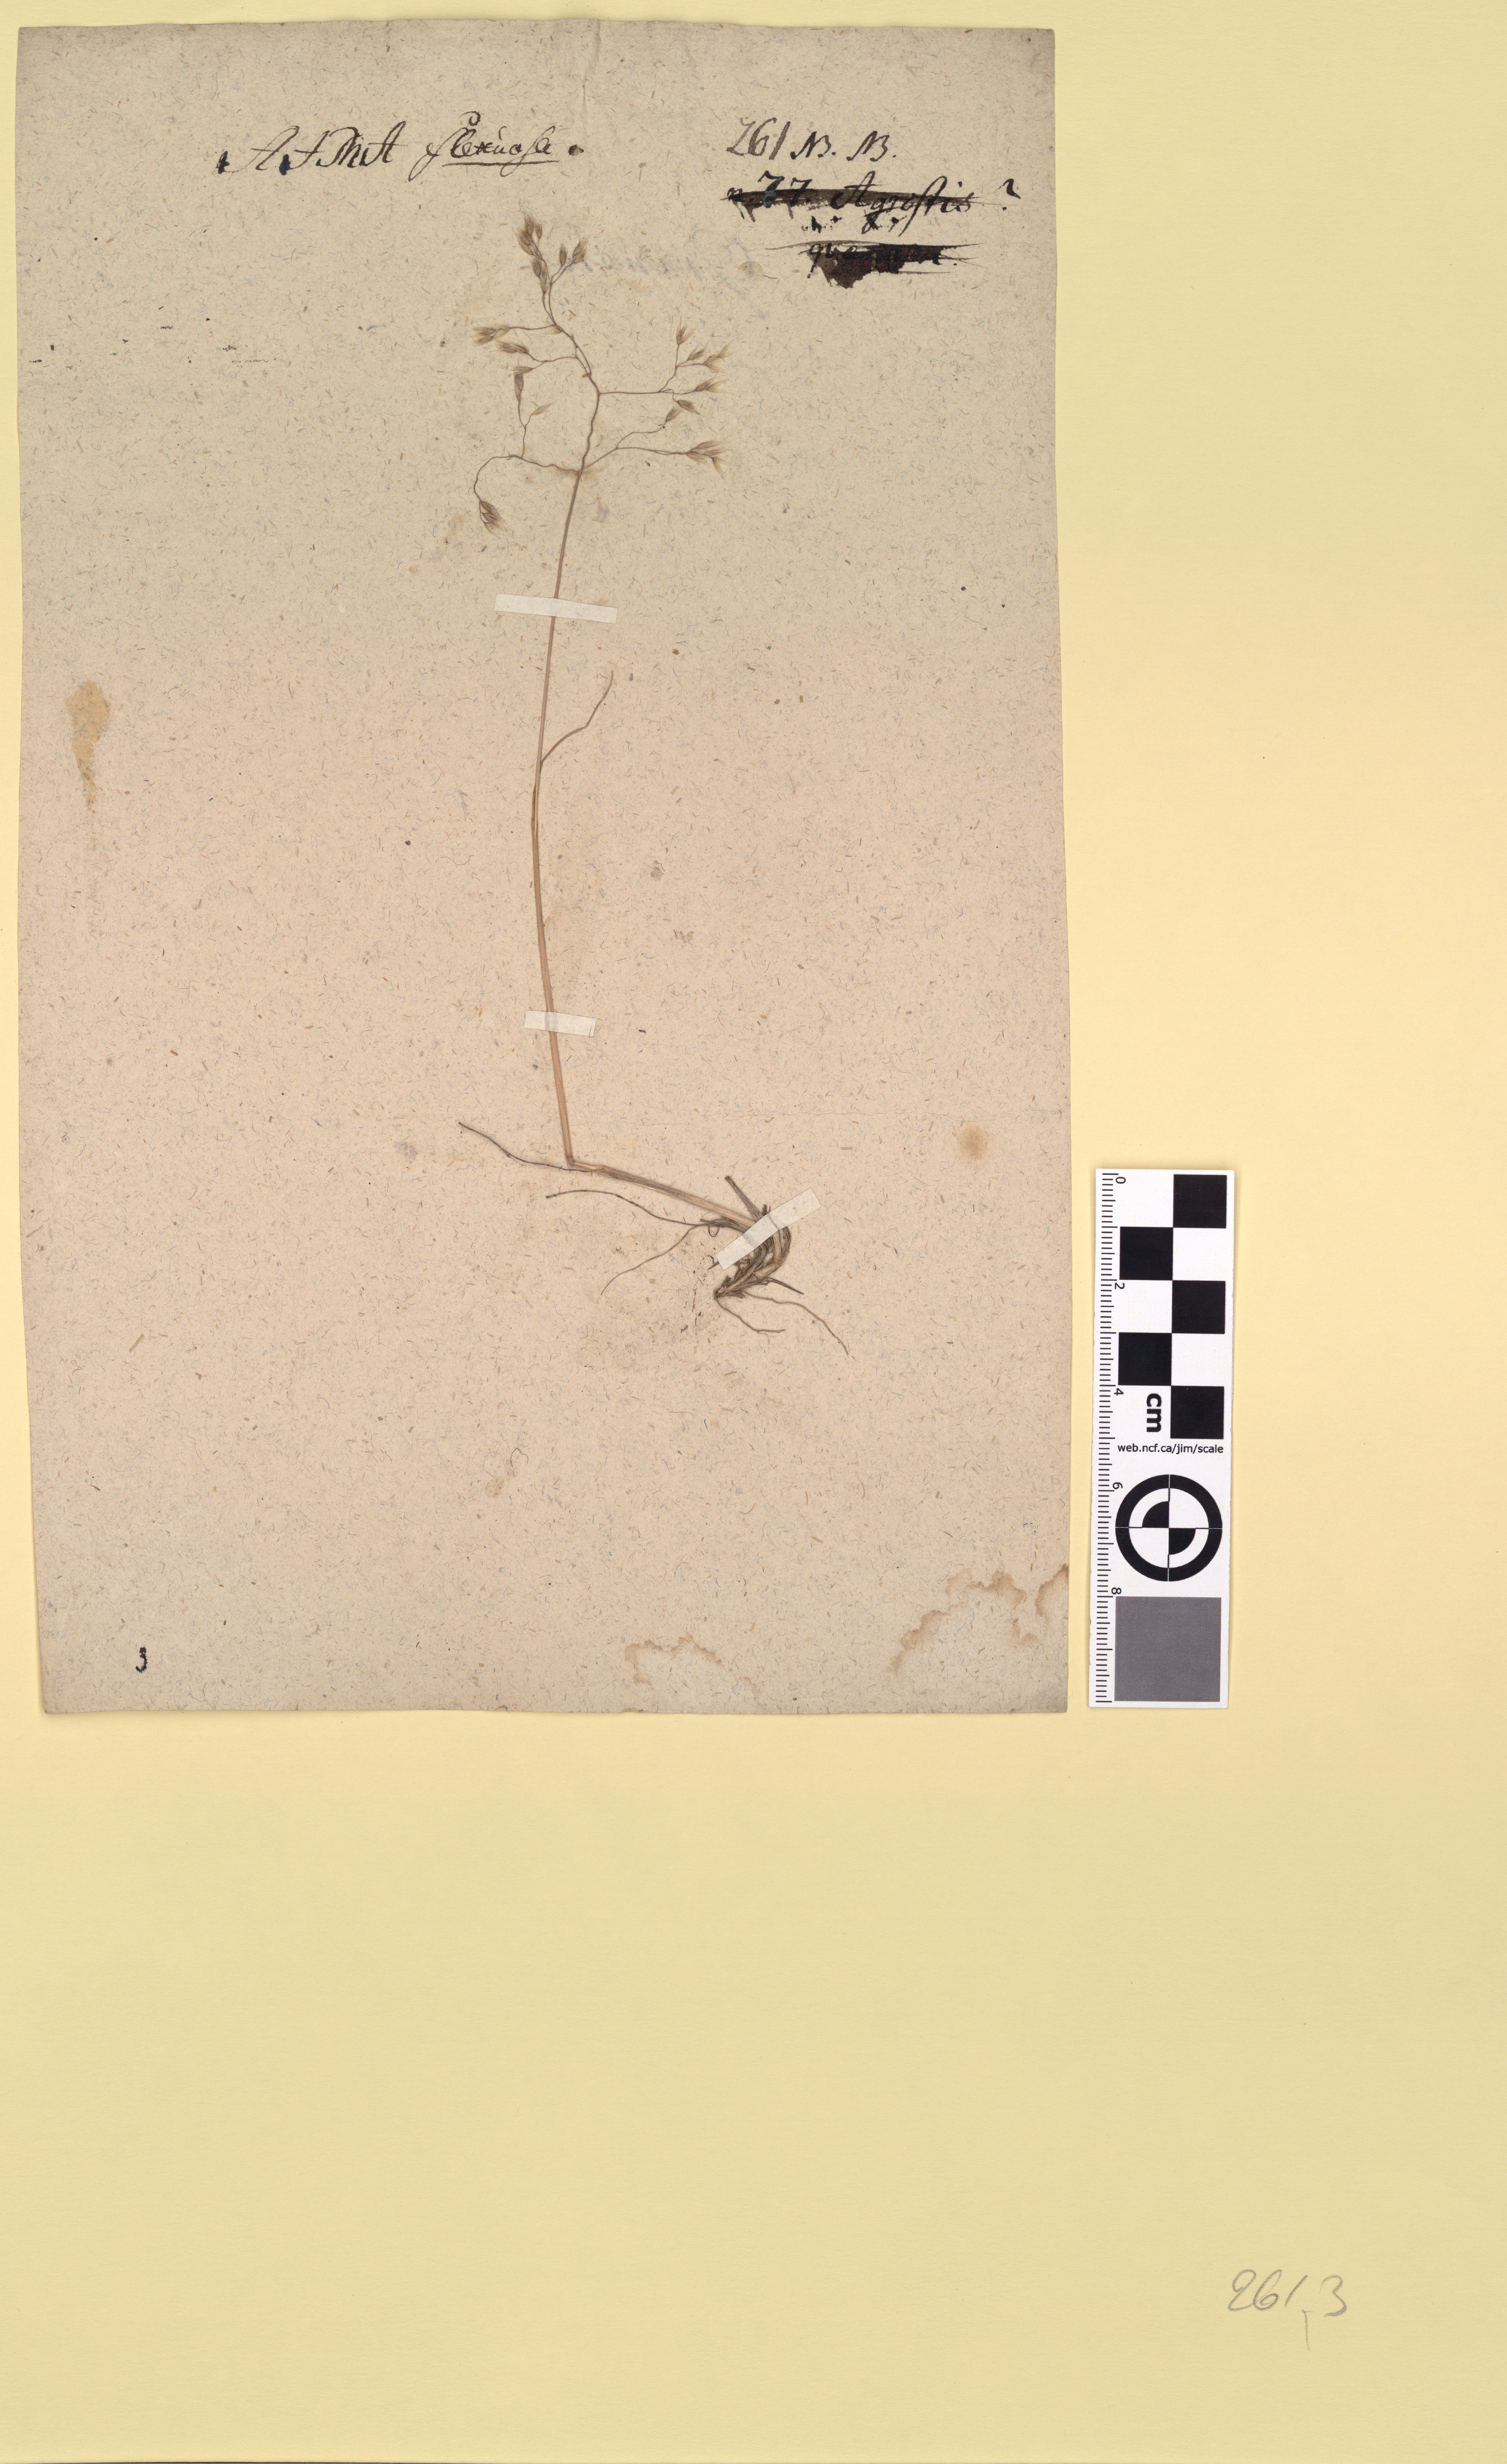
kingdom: Plantae
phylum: Tracheophyta
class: Liliopsida
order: Poales
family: Poaceae
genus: Avenella
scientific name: Avenella flexuosa
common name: Wavy hairgrass
